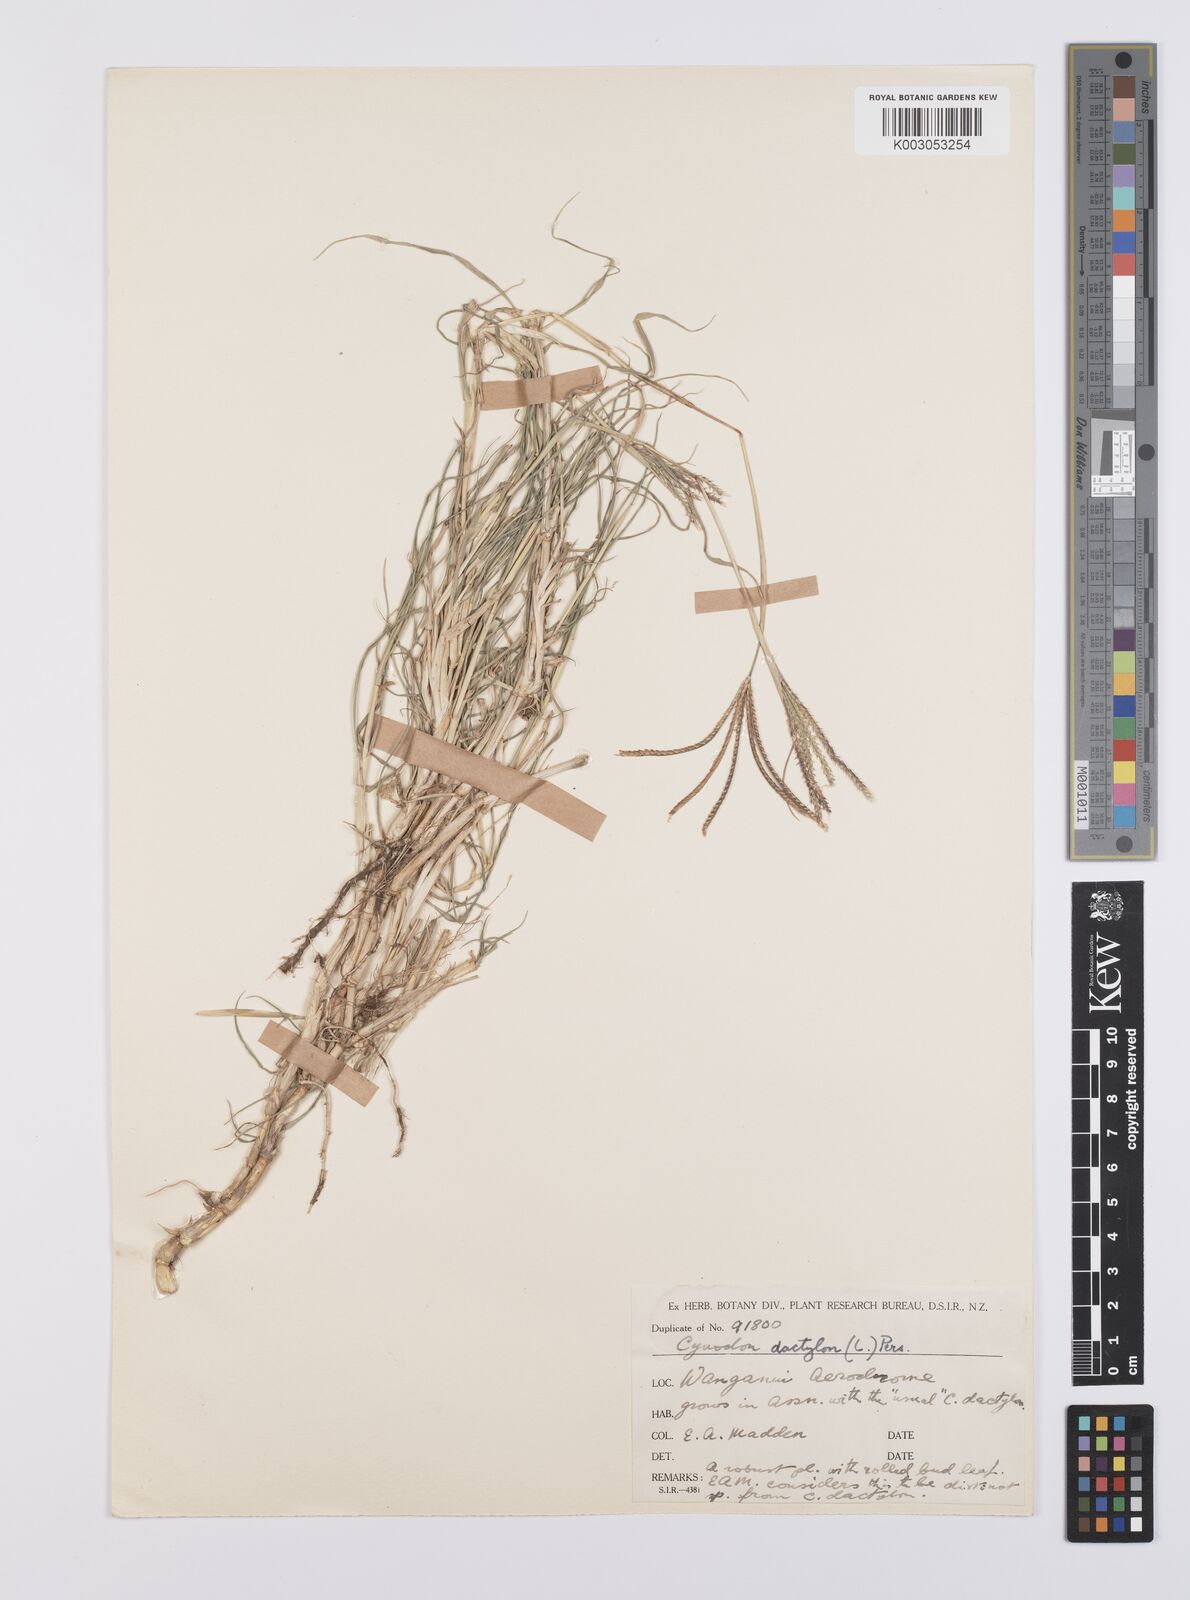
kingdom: Plantae
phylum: Tracheophyta
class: Liliopsida
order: Poales
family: Poaceae
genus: Cynodon
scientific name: Cynodon dactylon
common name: Bermuda grass
